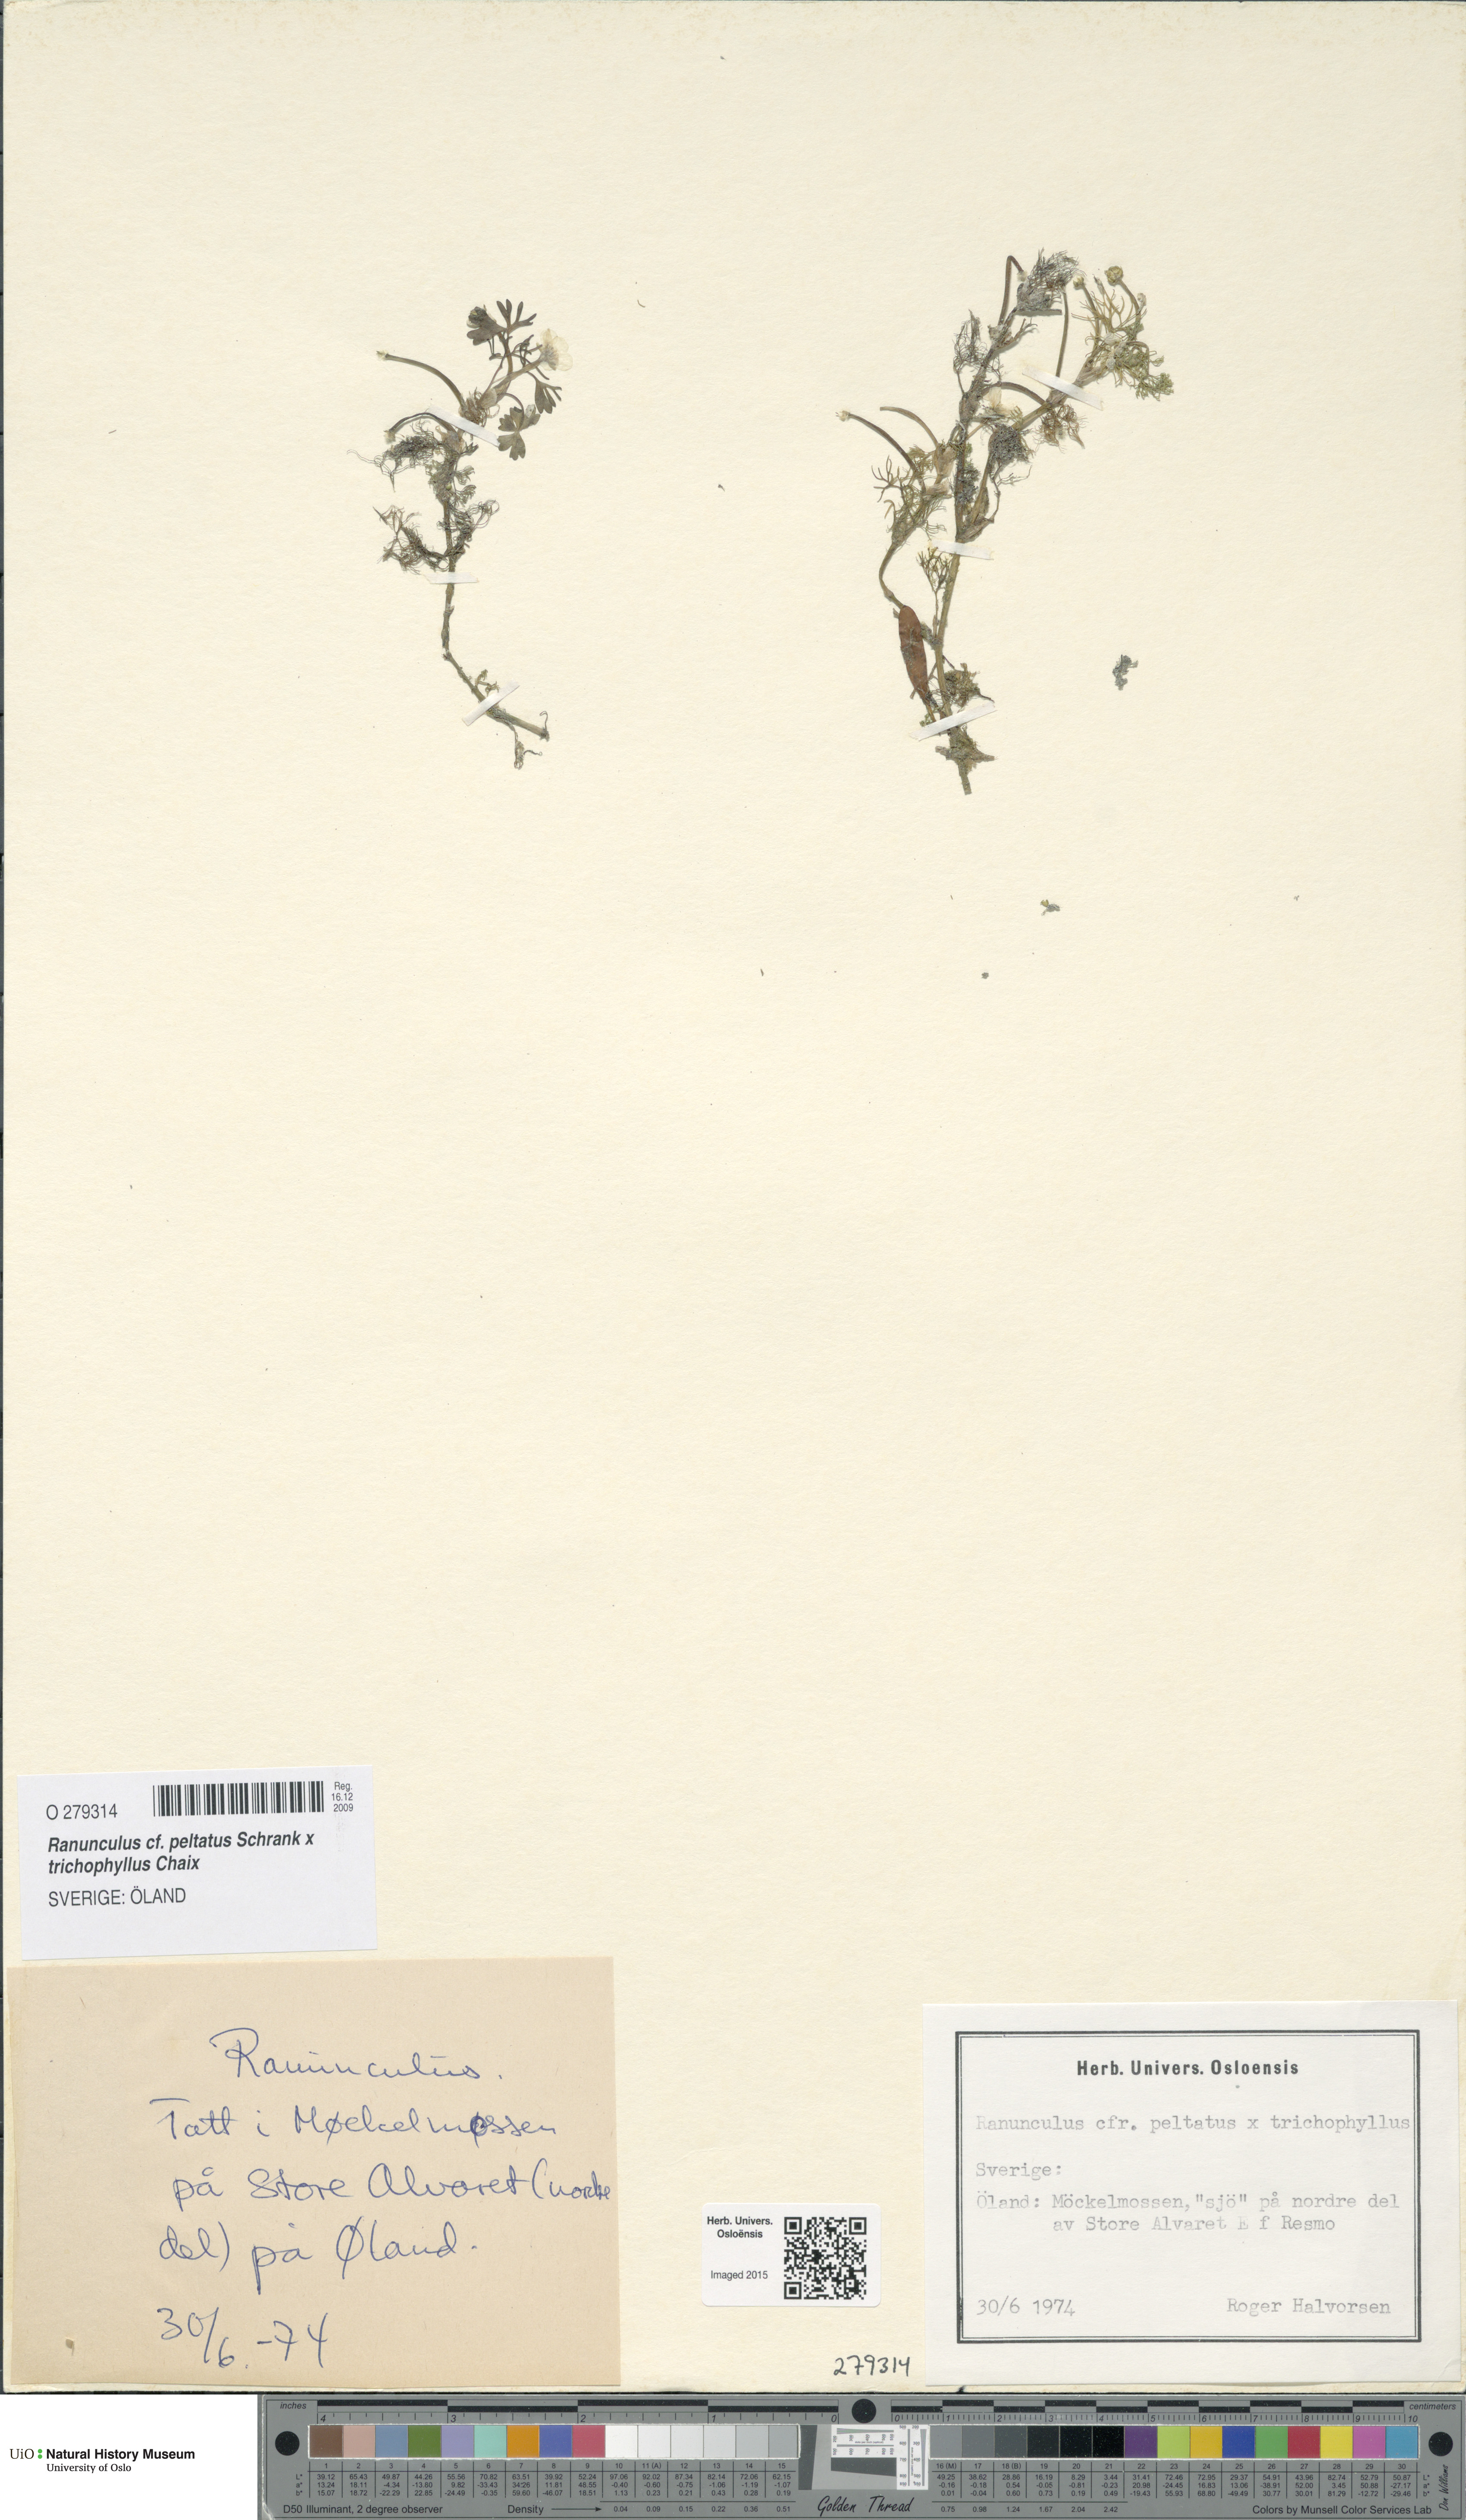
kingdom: Plantae
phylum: Tracheophyta
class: Magnoliopsida
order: Ranunculales
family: Ranunculaceae
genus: Ranunculus
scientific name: Ranunculus
